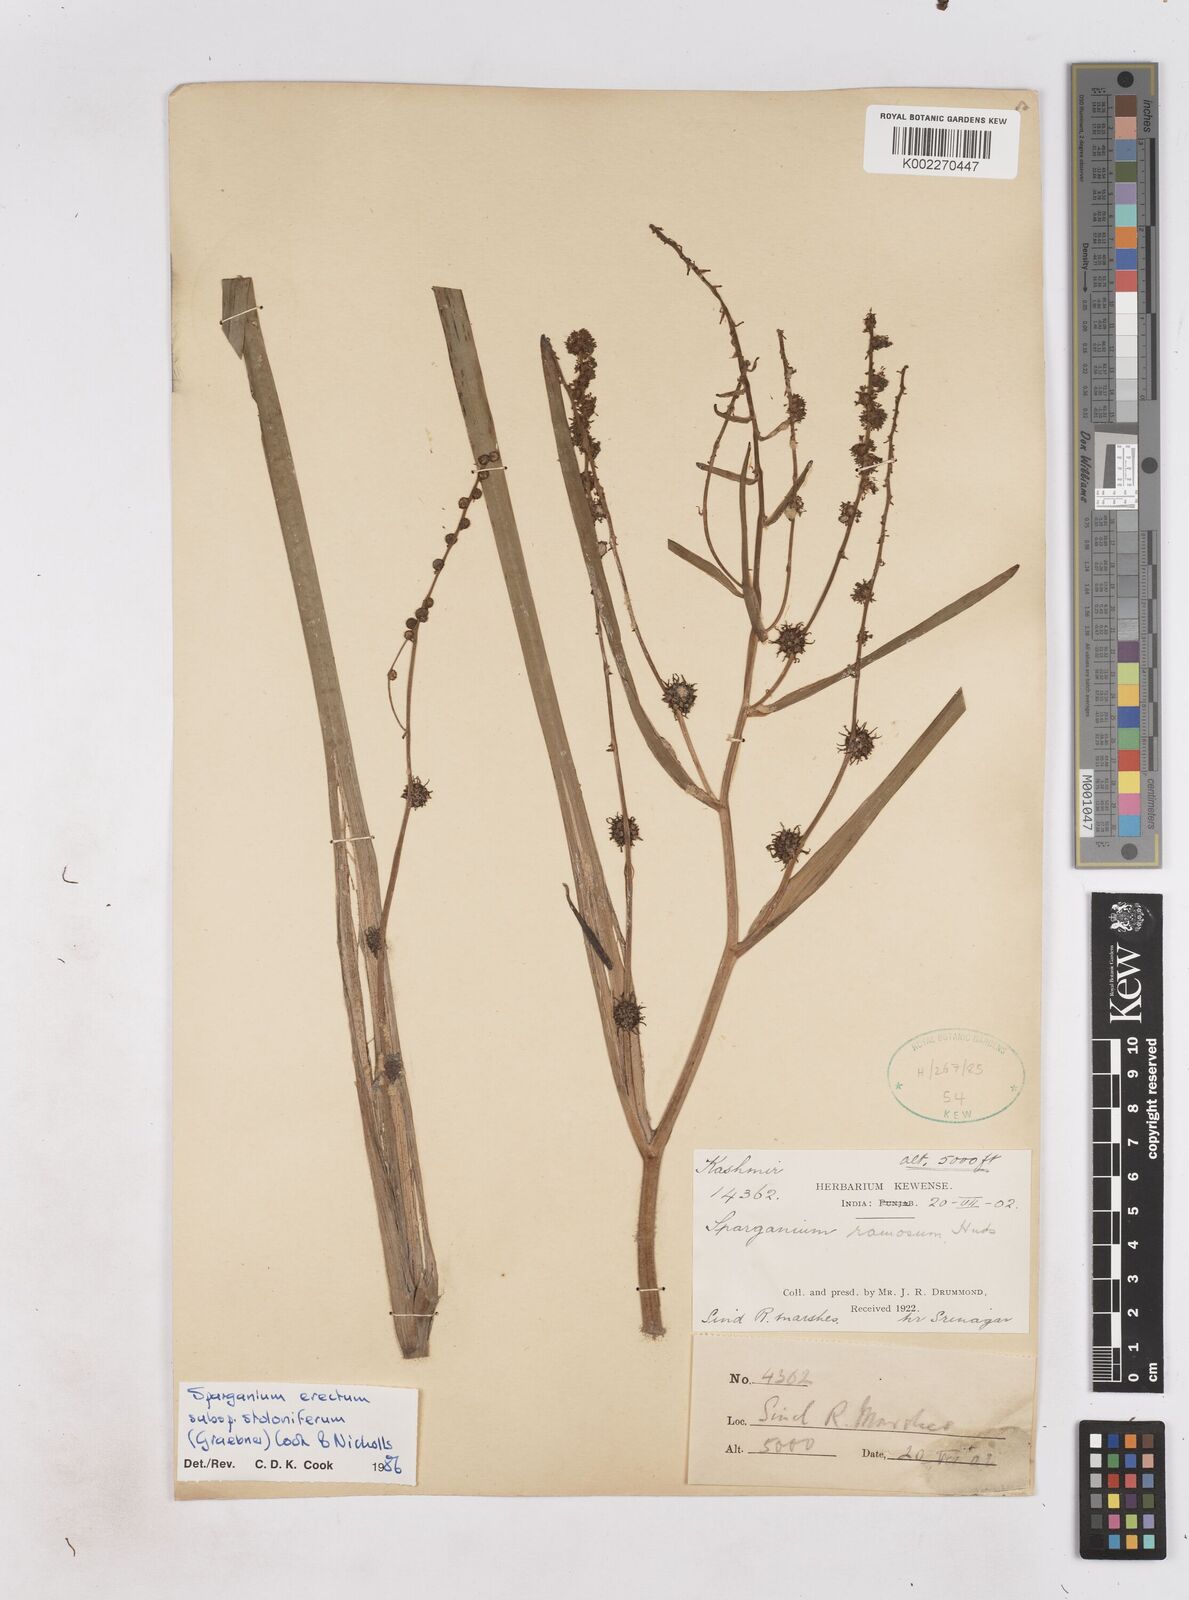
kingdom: Plantae
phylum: Tracheophyta
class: Liliopsida
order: Poales
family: Typhaceae
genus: Sparganium
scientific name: Sparganium stoloniferum
